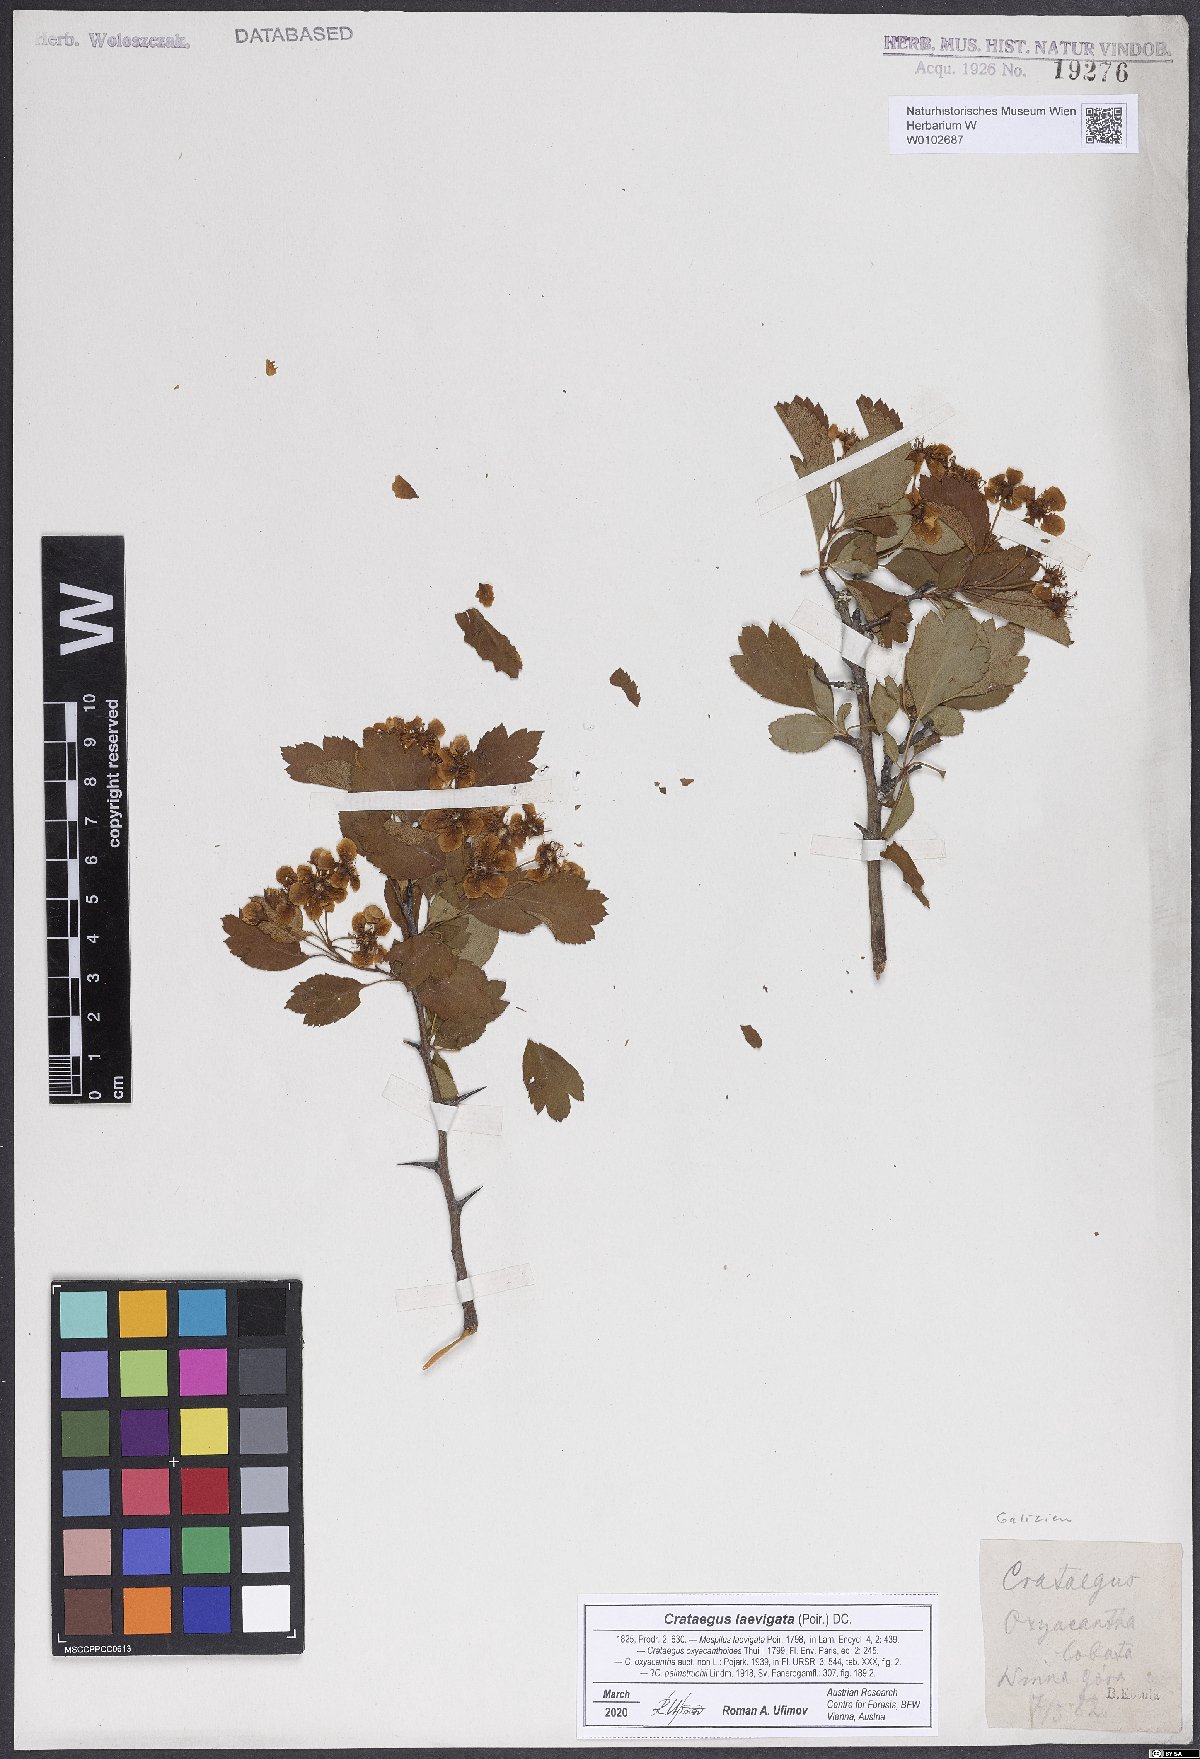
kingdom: Plantae
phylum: Tracheophyta
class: Magnoliopsida
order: Rosales
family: Rosaceae
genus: Crataegus
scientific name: Crataegus laevigata
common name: Midland hawthorn
